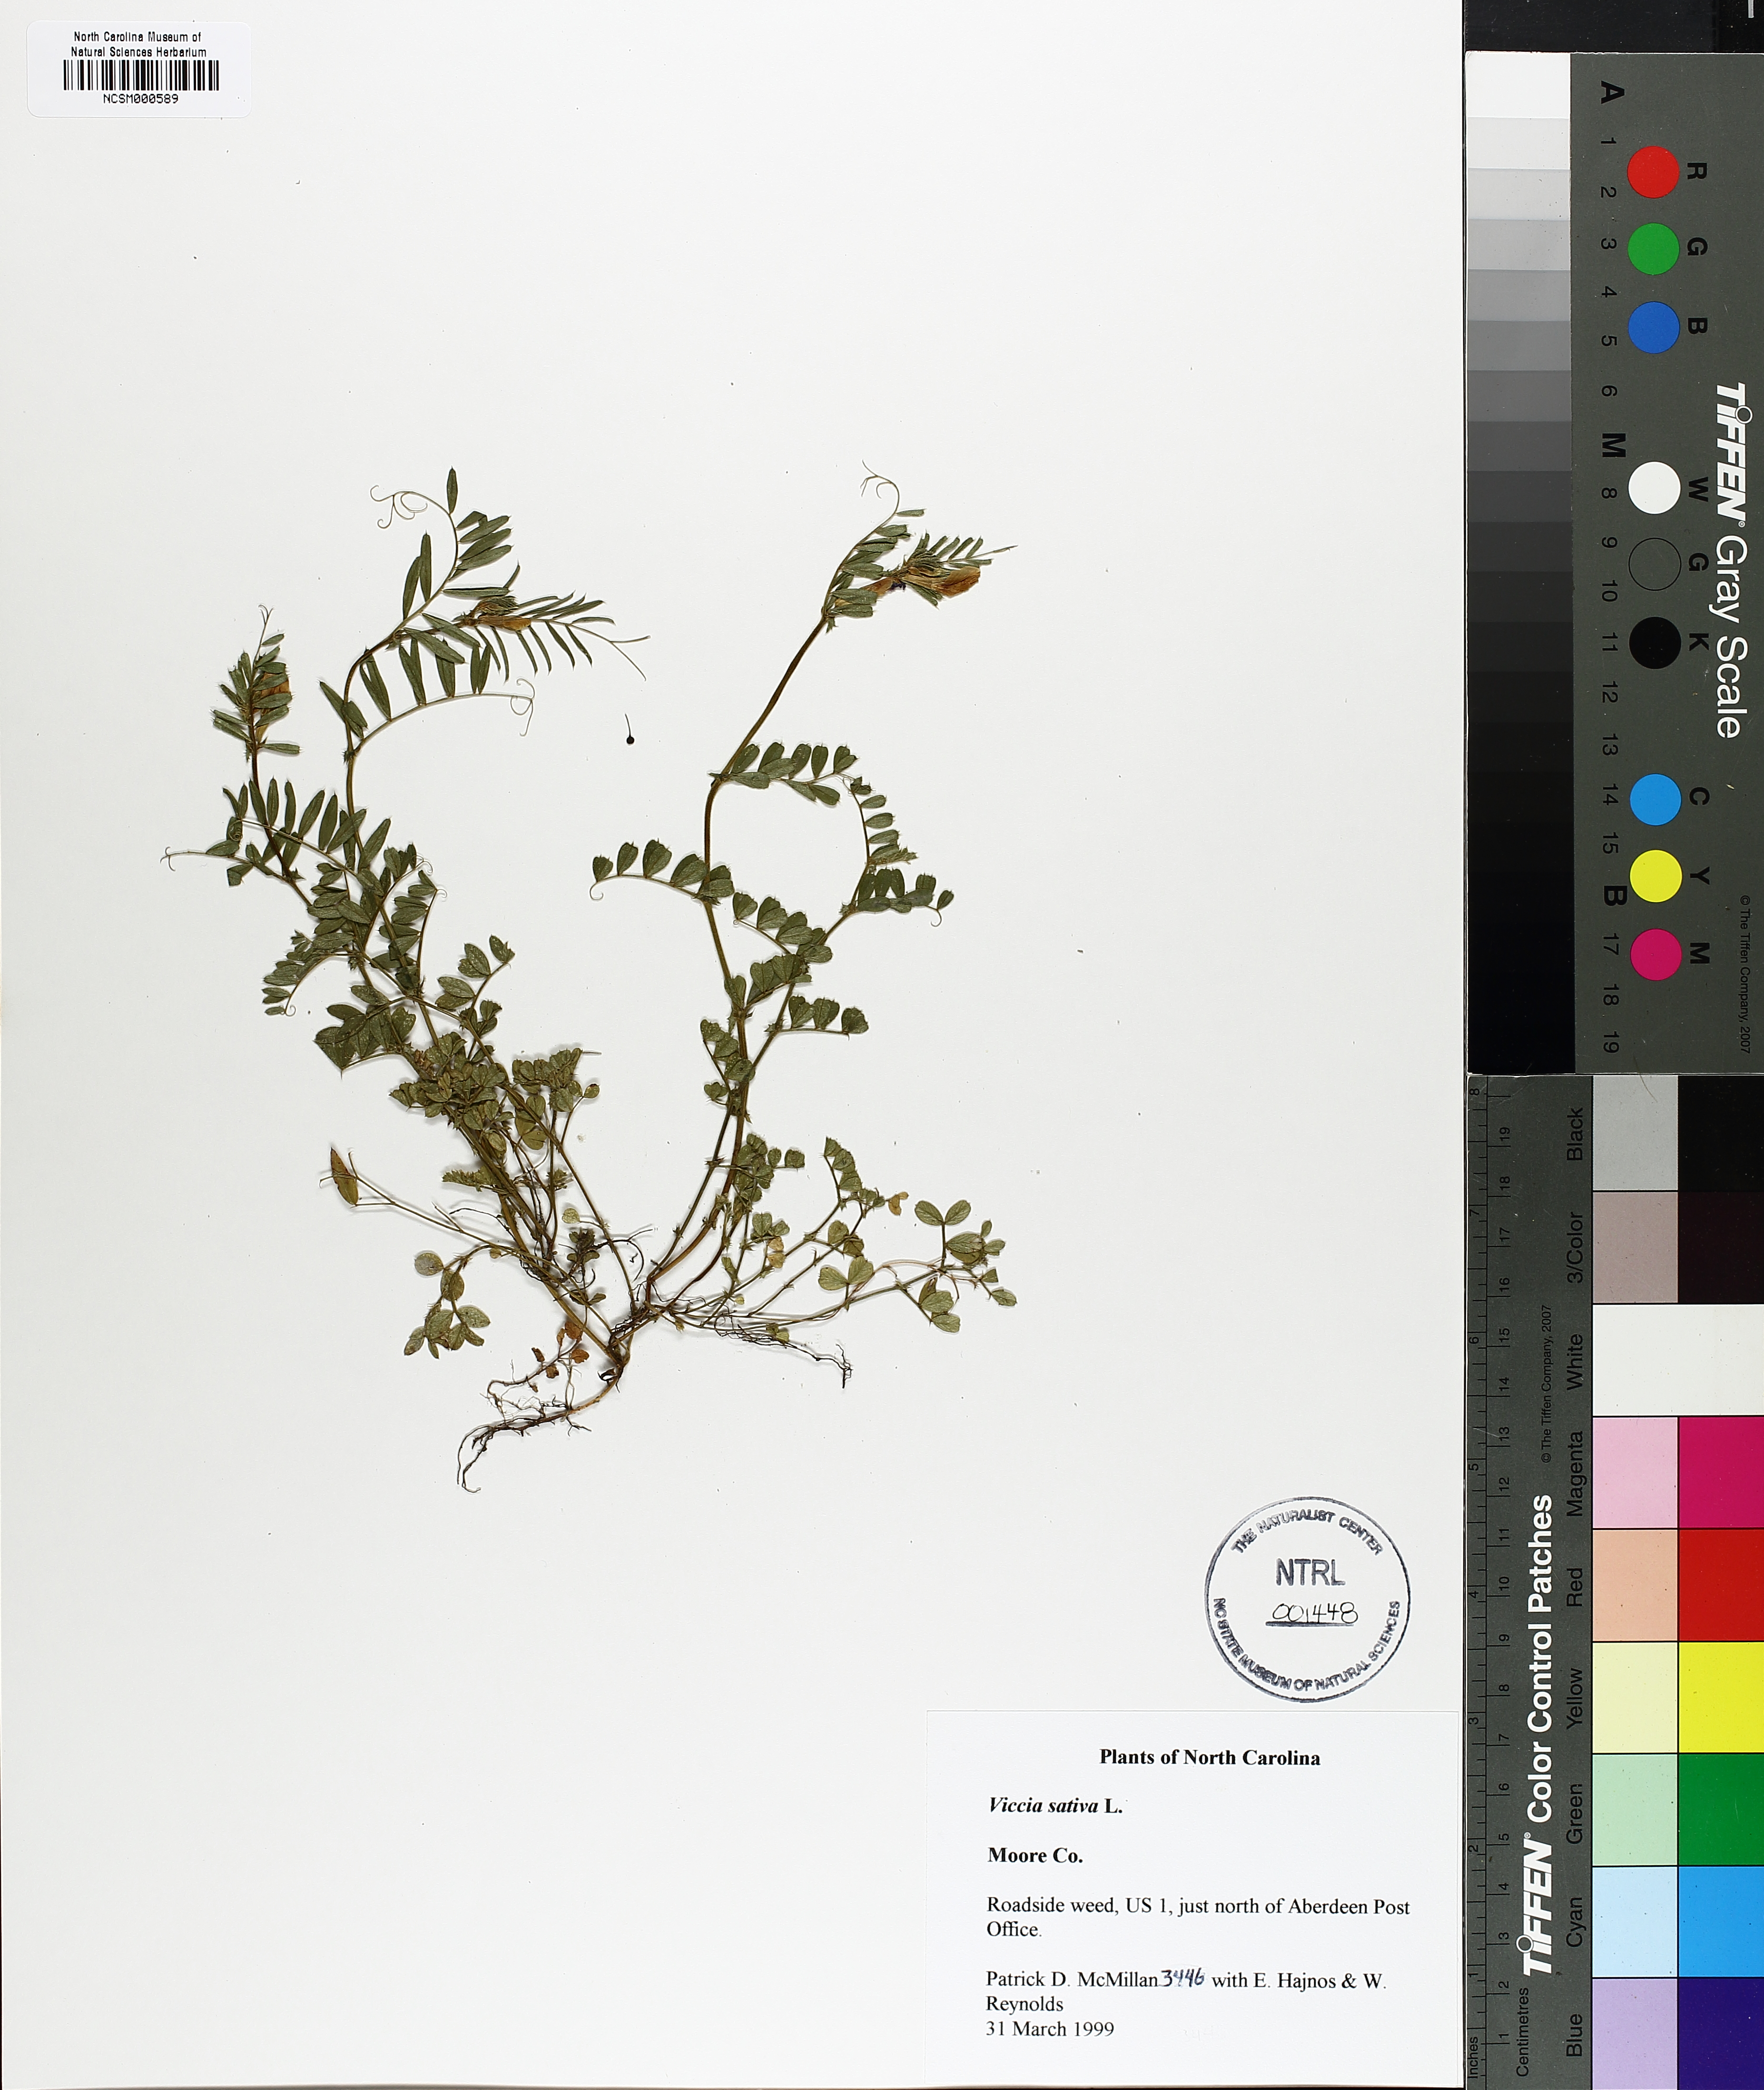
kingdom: Plantae
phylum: Tracheophyta
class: Magnoliopsida
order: Fabales
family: Fabaceae
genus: Vicia
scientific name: Vicia sativa
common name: Garden vetch
